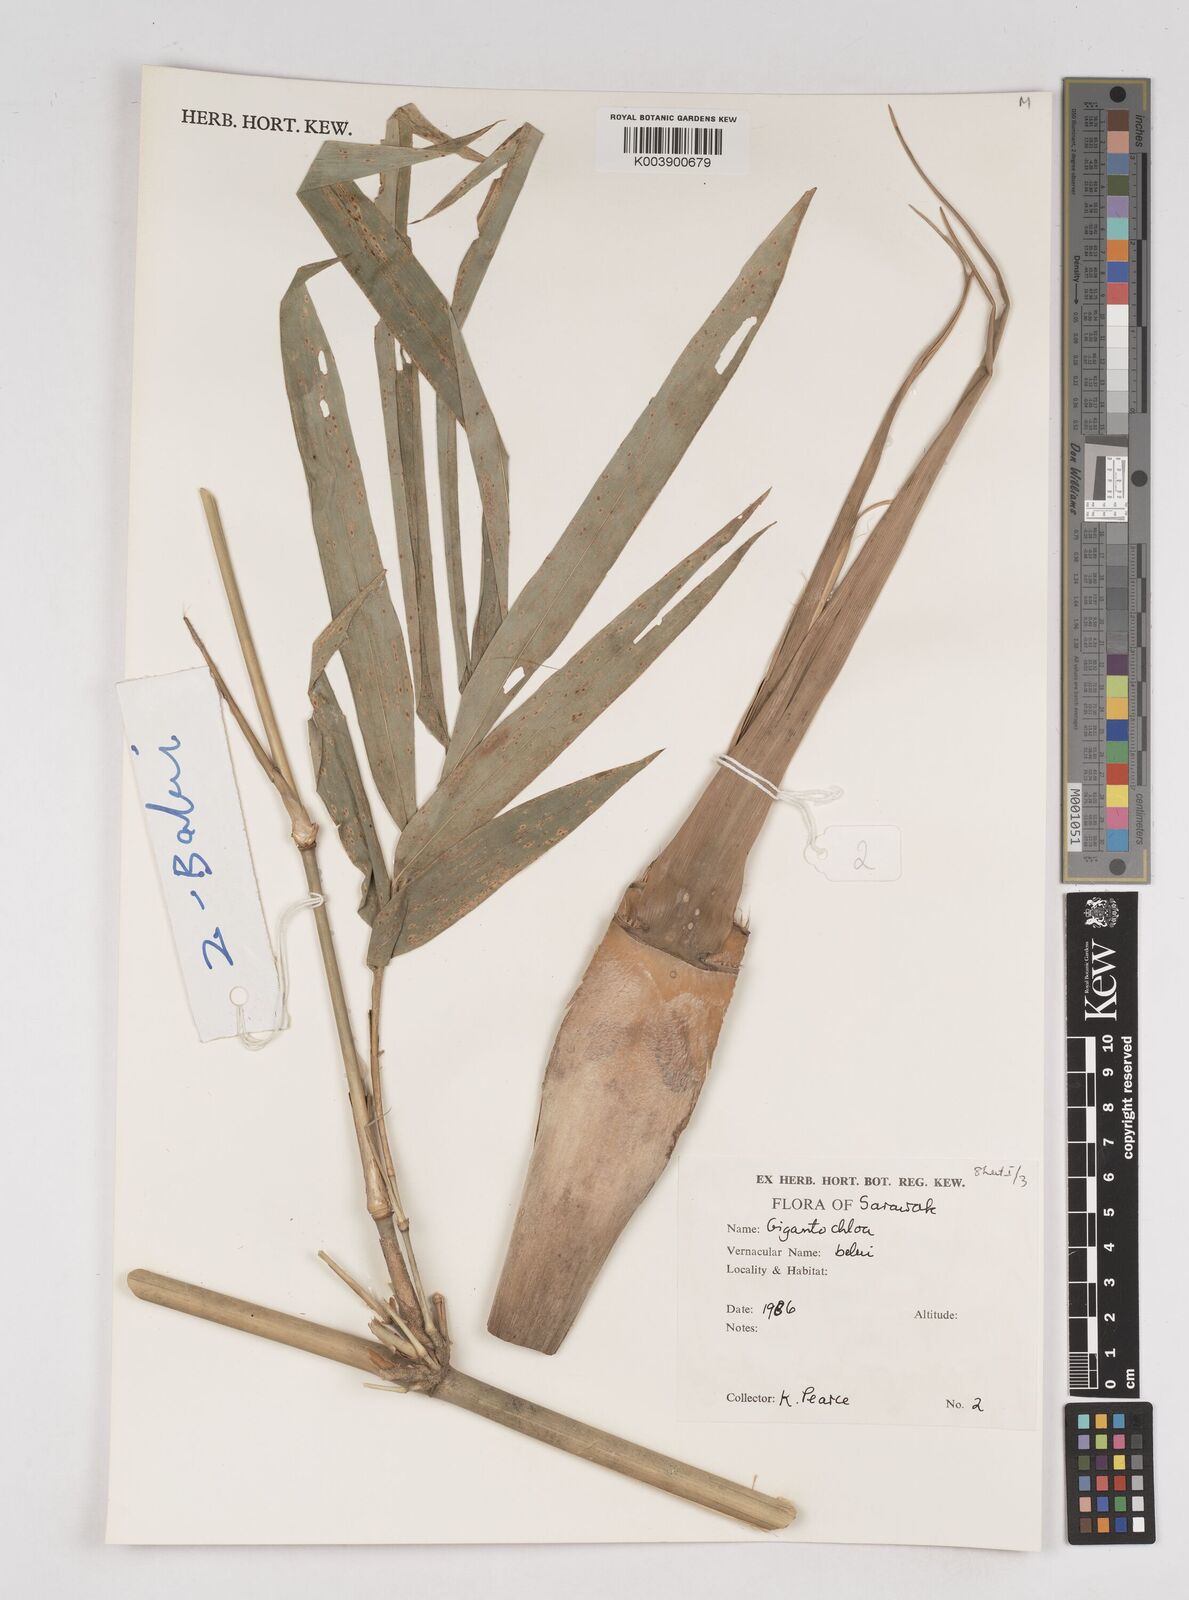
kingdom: Plantae
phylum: Tracheophyta
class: Liliopsida
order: Poales
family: Poaceae
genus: Gigantochloa
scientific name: Gigantochloa
